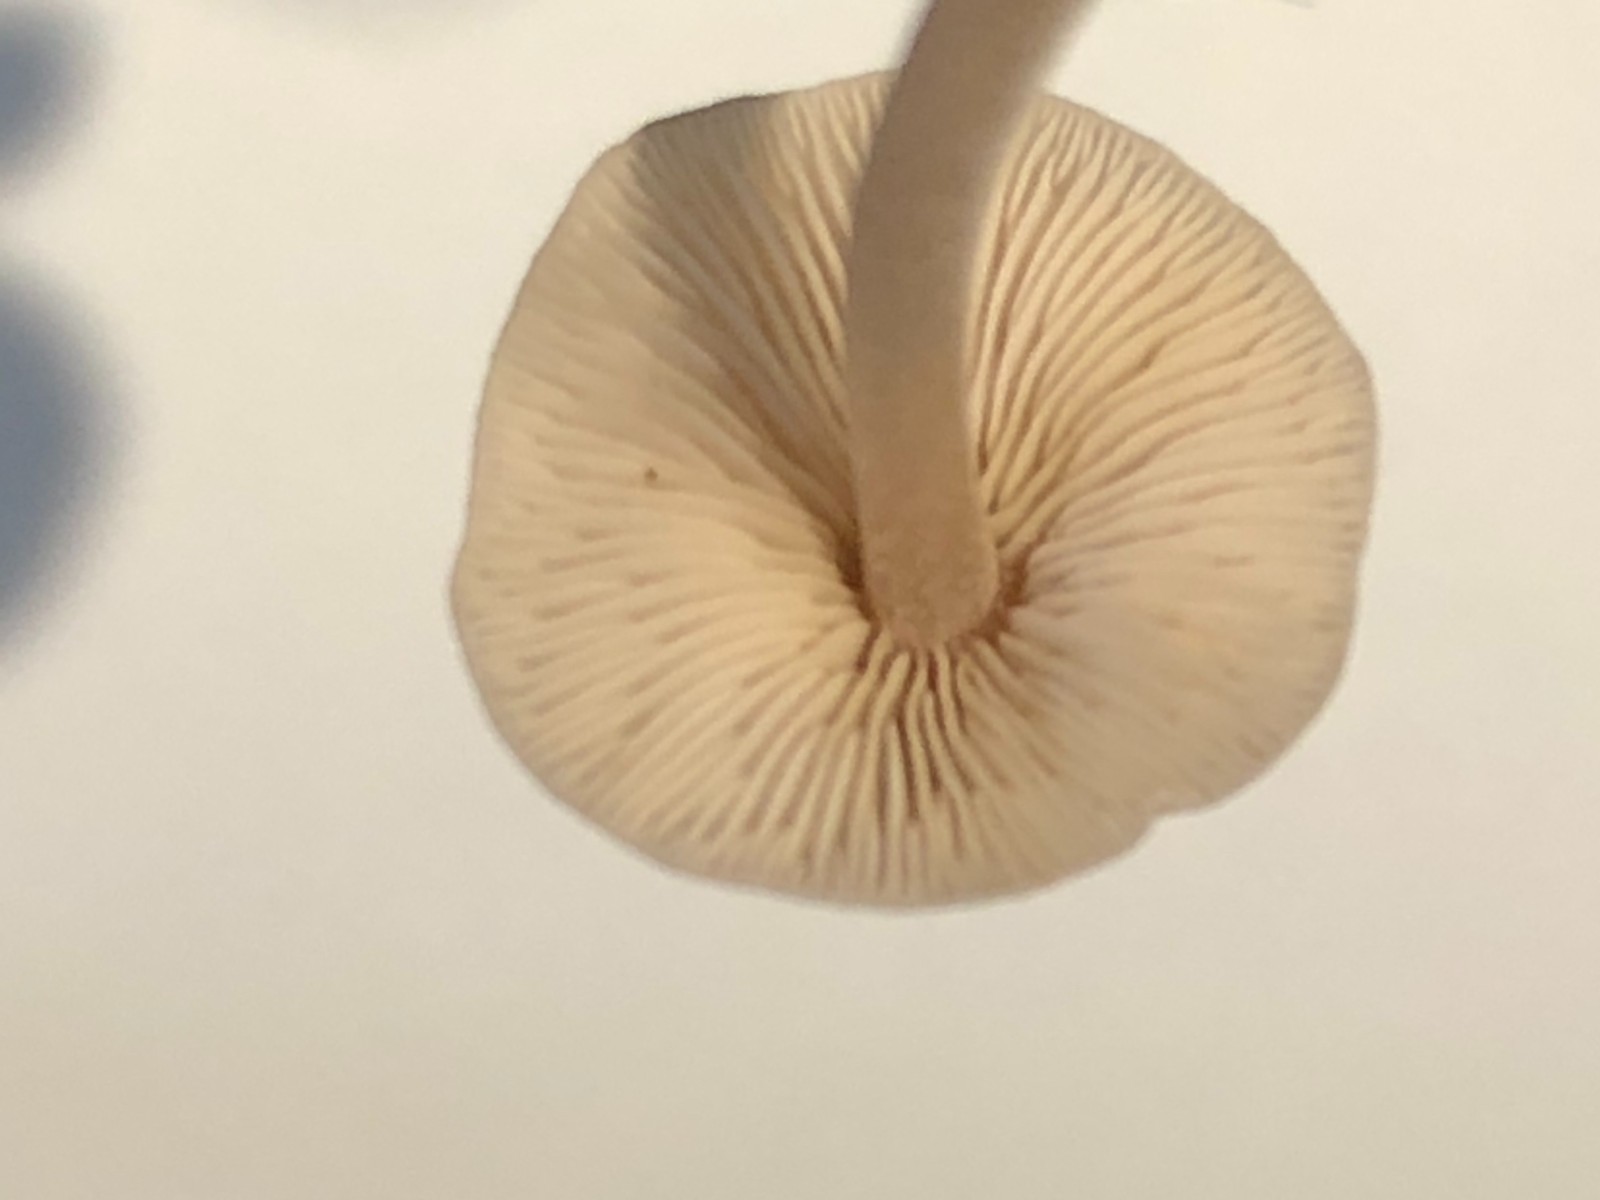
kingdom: Fungi
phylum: Basidiomycota
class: Agaricomycetes
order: Agaricales
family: Marasmiaceae
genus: Baeospora
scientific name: Baeospora myosura
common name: koglebruskhat
